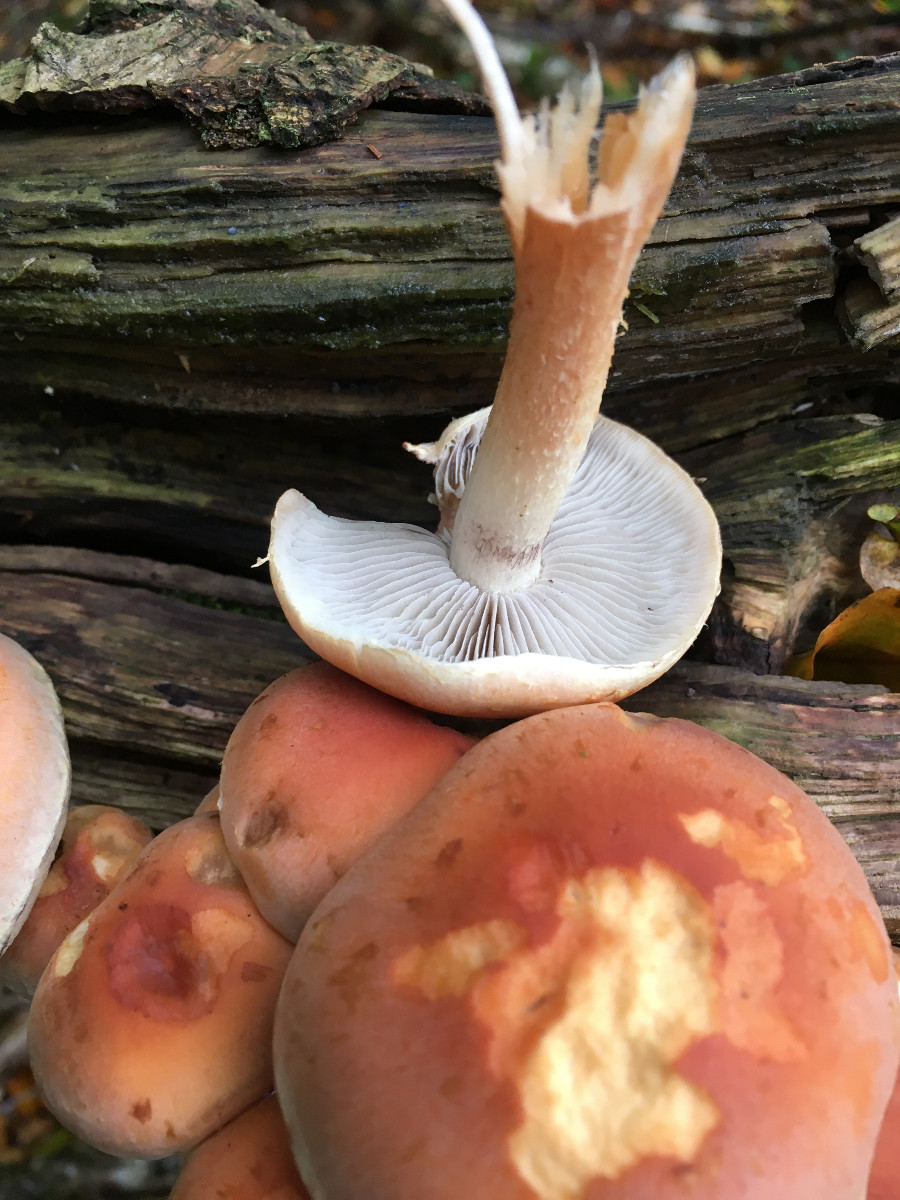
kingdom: Fungi
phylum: Basidiomycota
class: Agaricomycetes
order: Agaricales
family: Strophariaceae
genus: Hypholoma
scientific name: Hypholoma lateritium
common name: teglrød svovlhat
